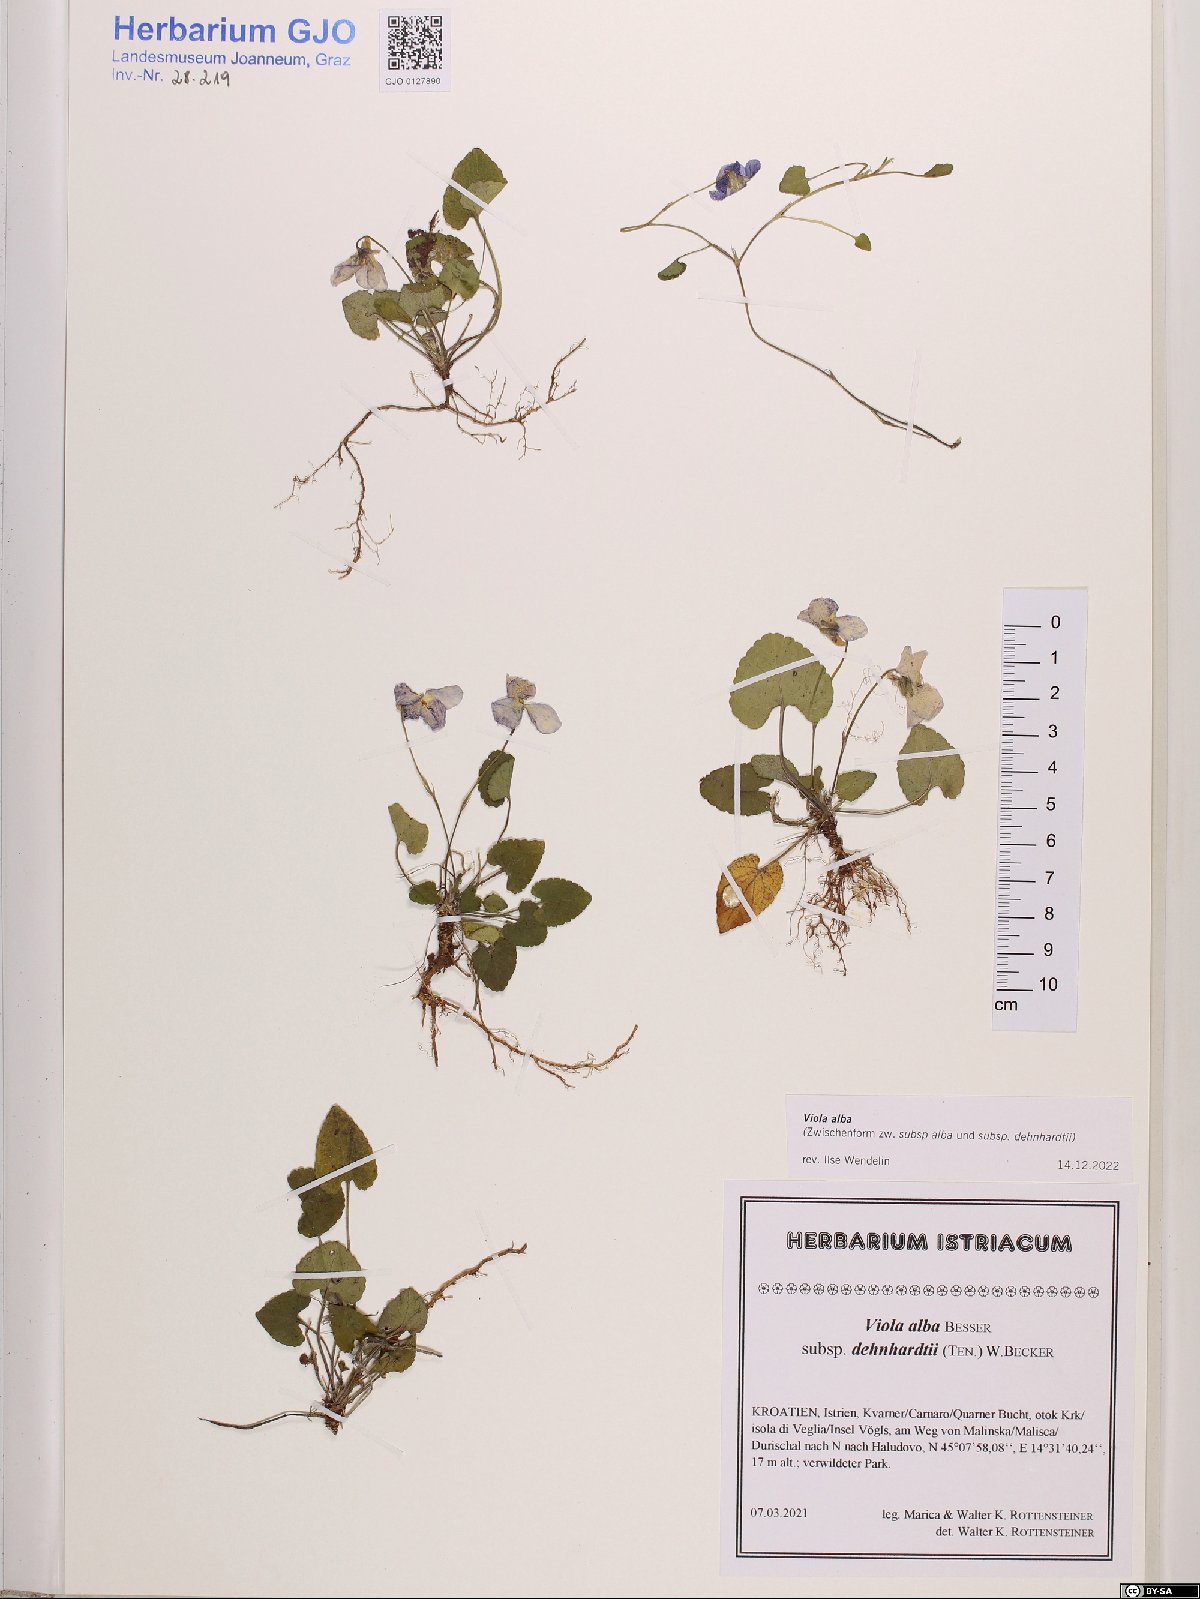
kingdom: Plantae
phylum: Tracheophyta
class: Magnoliopsida
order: Malpighiales
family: Violaceae
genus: Viola
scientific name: Viola alba
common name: White violet
